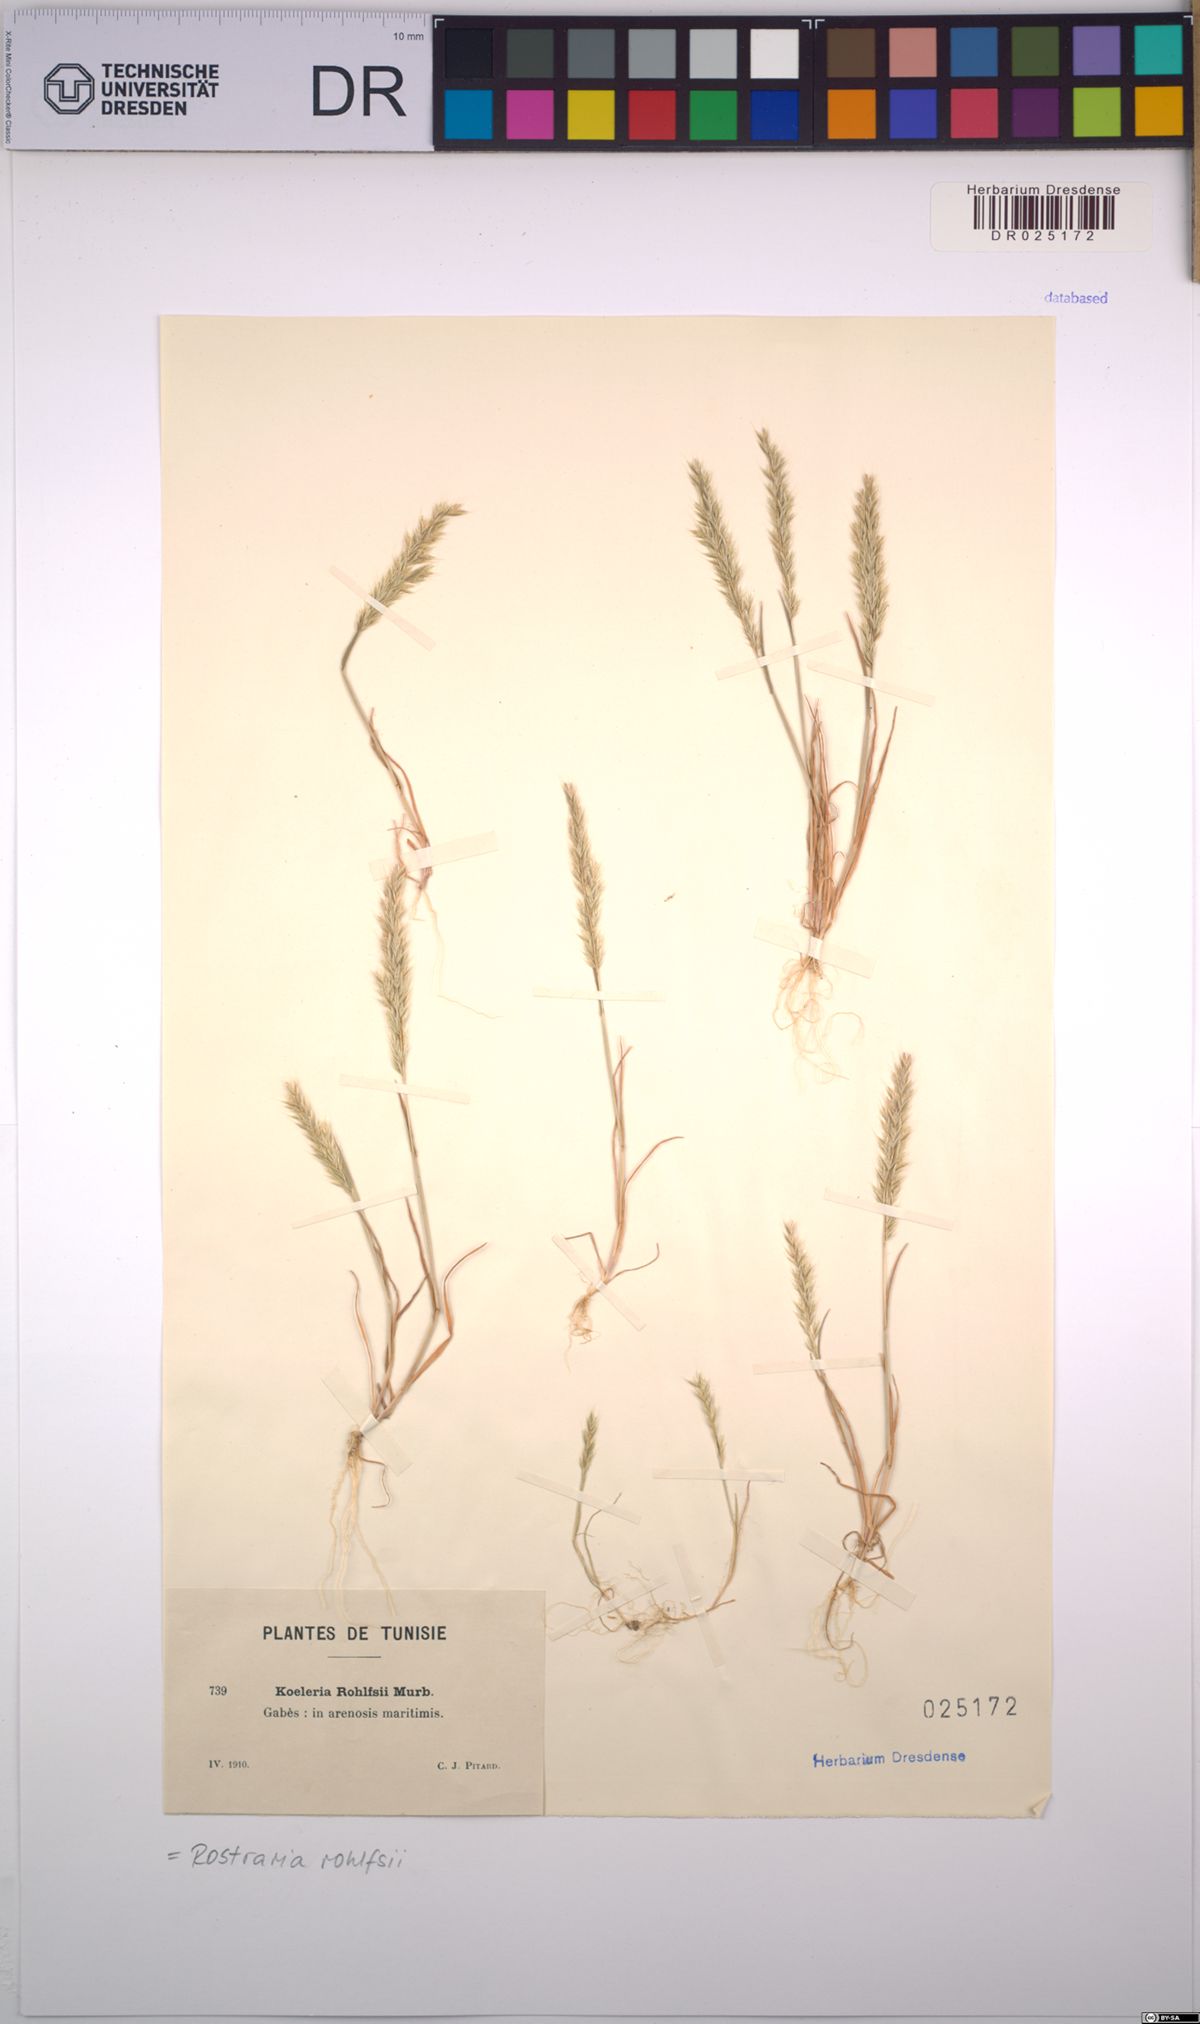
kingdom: Plantae
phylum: Tracheophyta
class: Liliopsida
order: Poales
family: Poaceae
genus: Rostraria
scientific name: Rostraria rohlfsii
